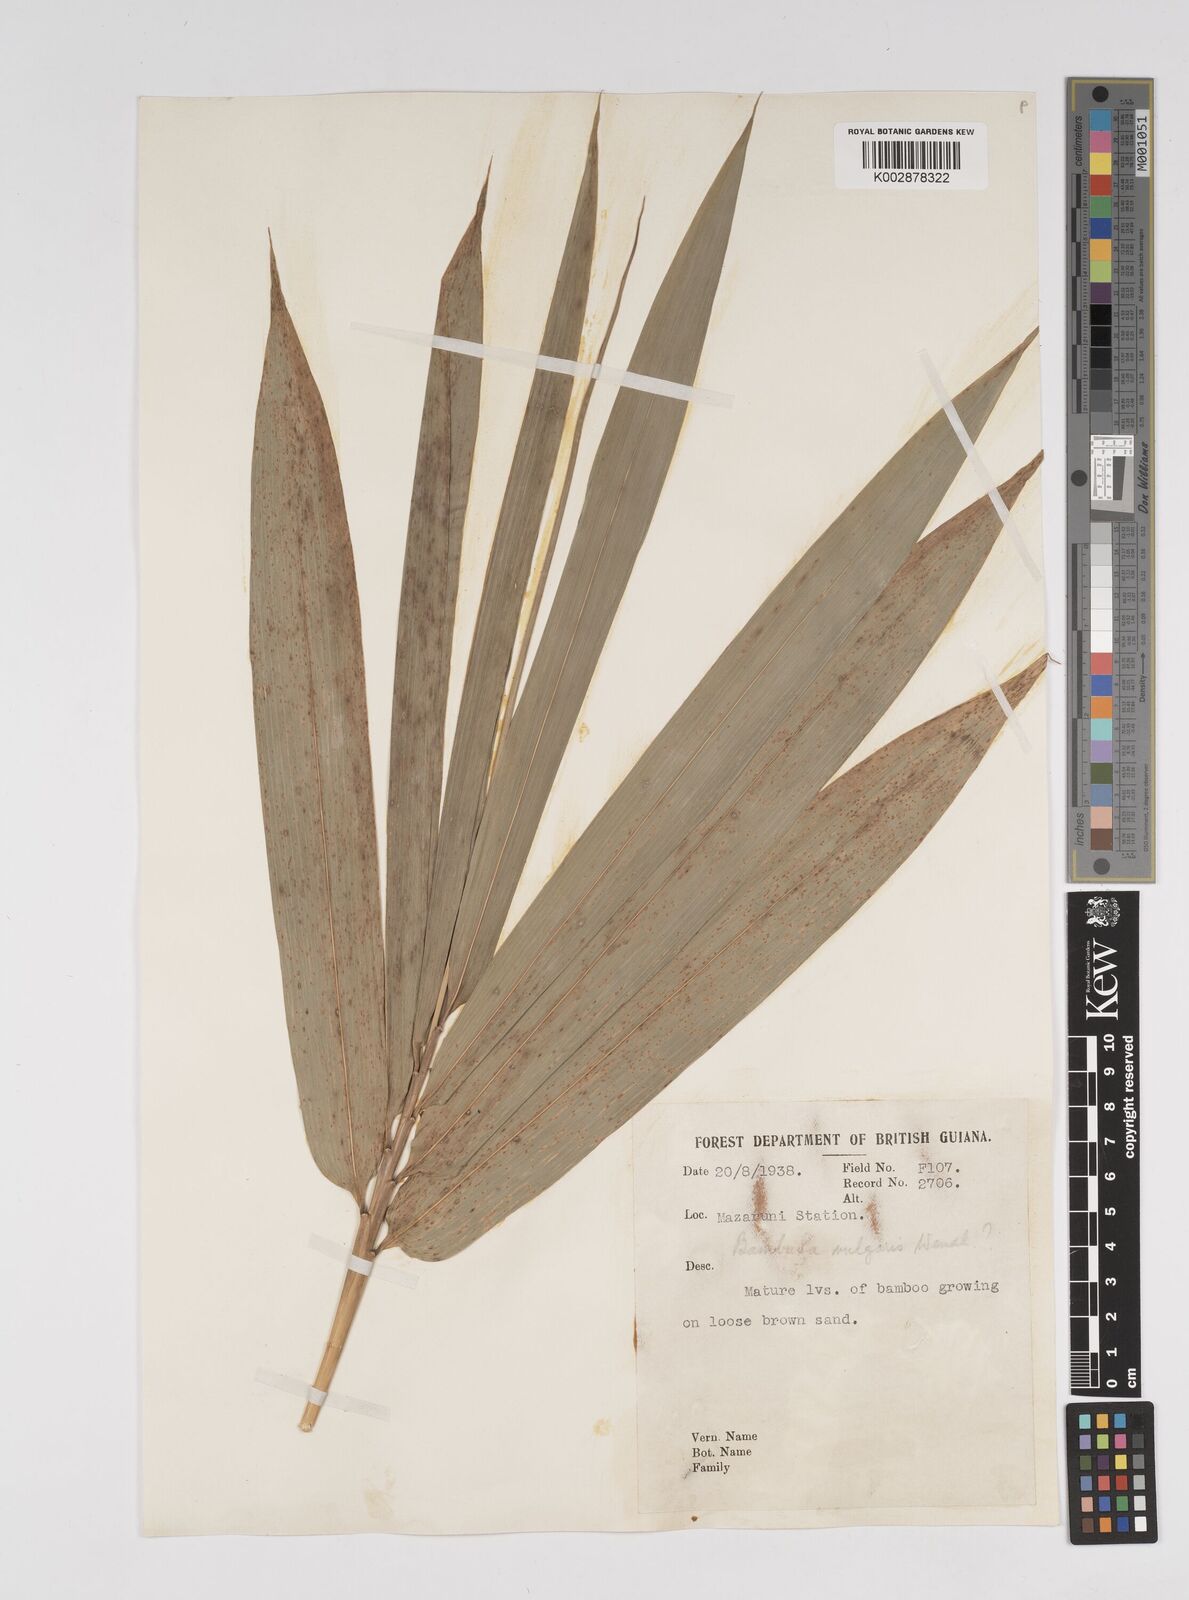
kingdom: Plantae
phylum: Tracheophyta
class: Liliopsida
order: Poales
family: Poaceae
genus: Bambusa
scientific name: Bambusa vulgaris
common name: Common bamboo
